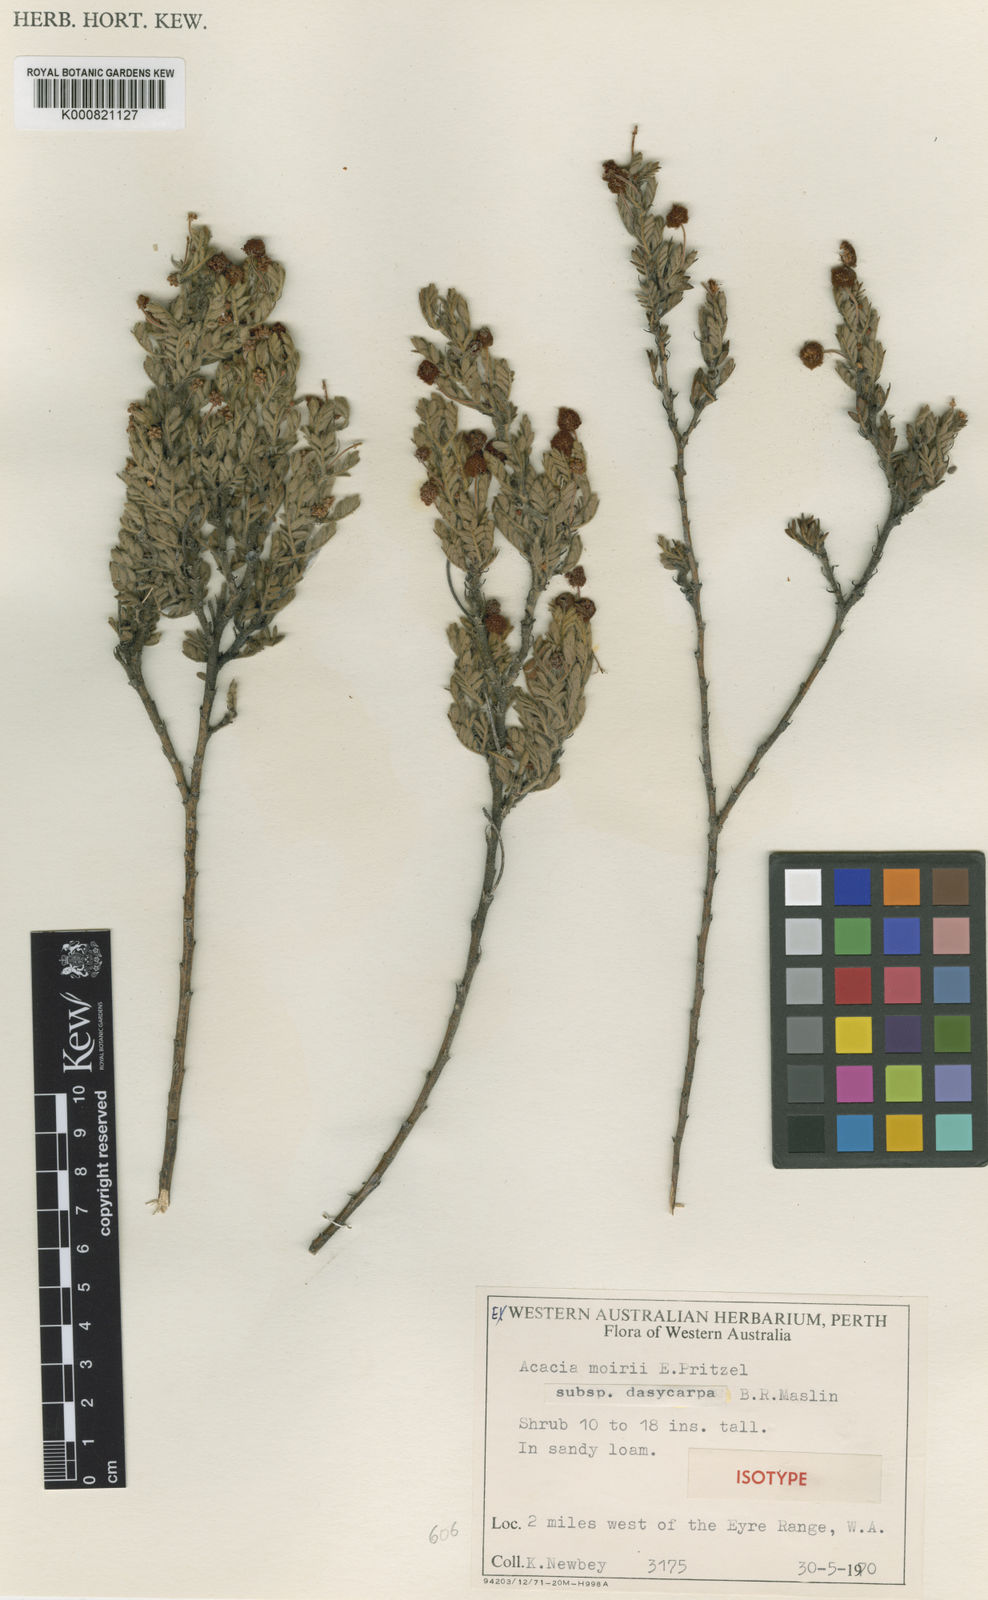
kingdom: Plantae
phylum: Tracheophyta
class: Magnoliopsida
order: Fabales
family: Fabaceae
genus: Acacia
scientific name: Acacia moirii
